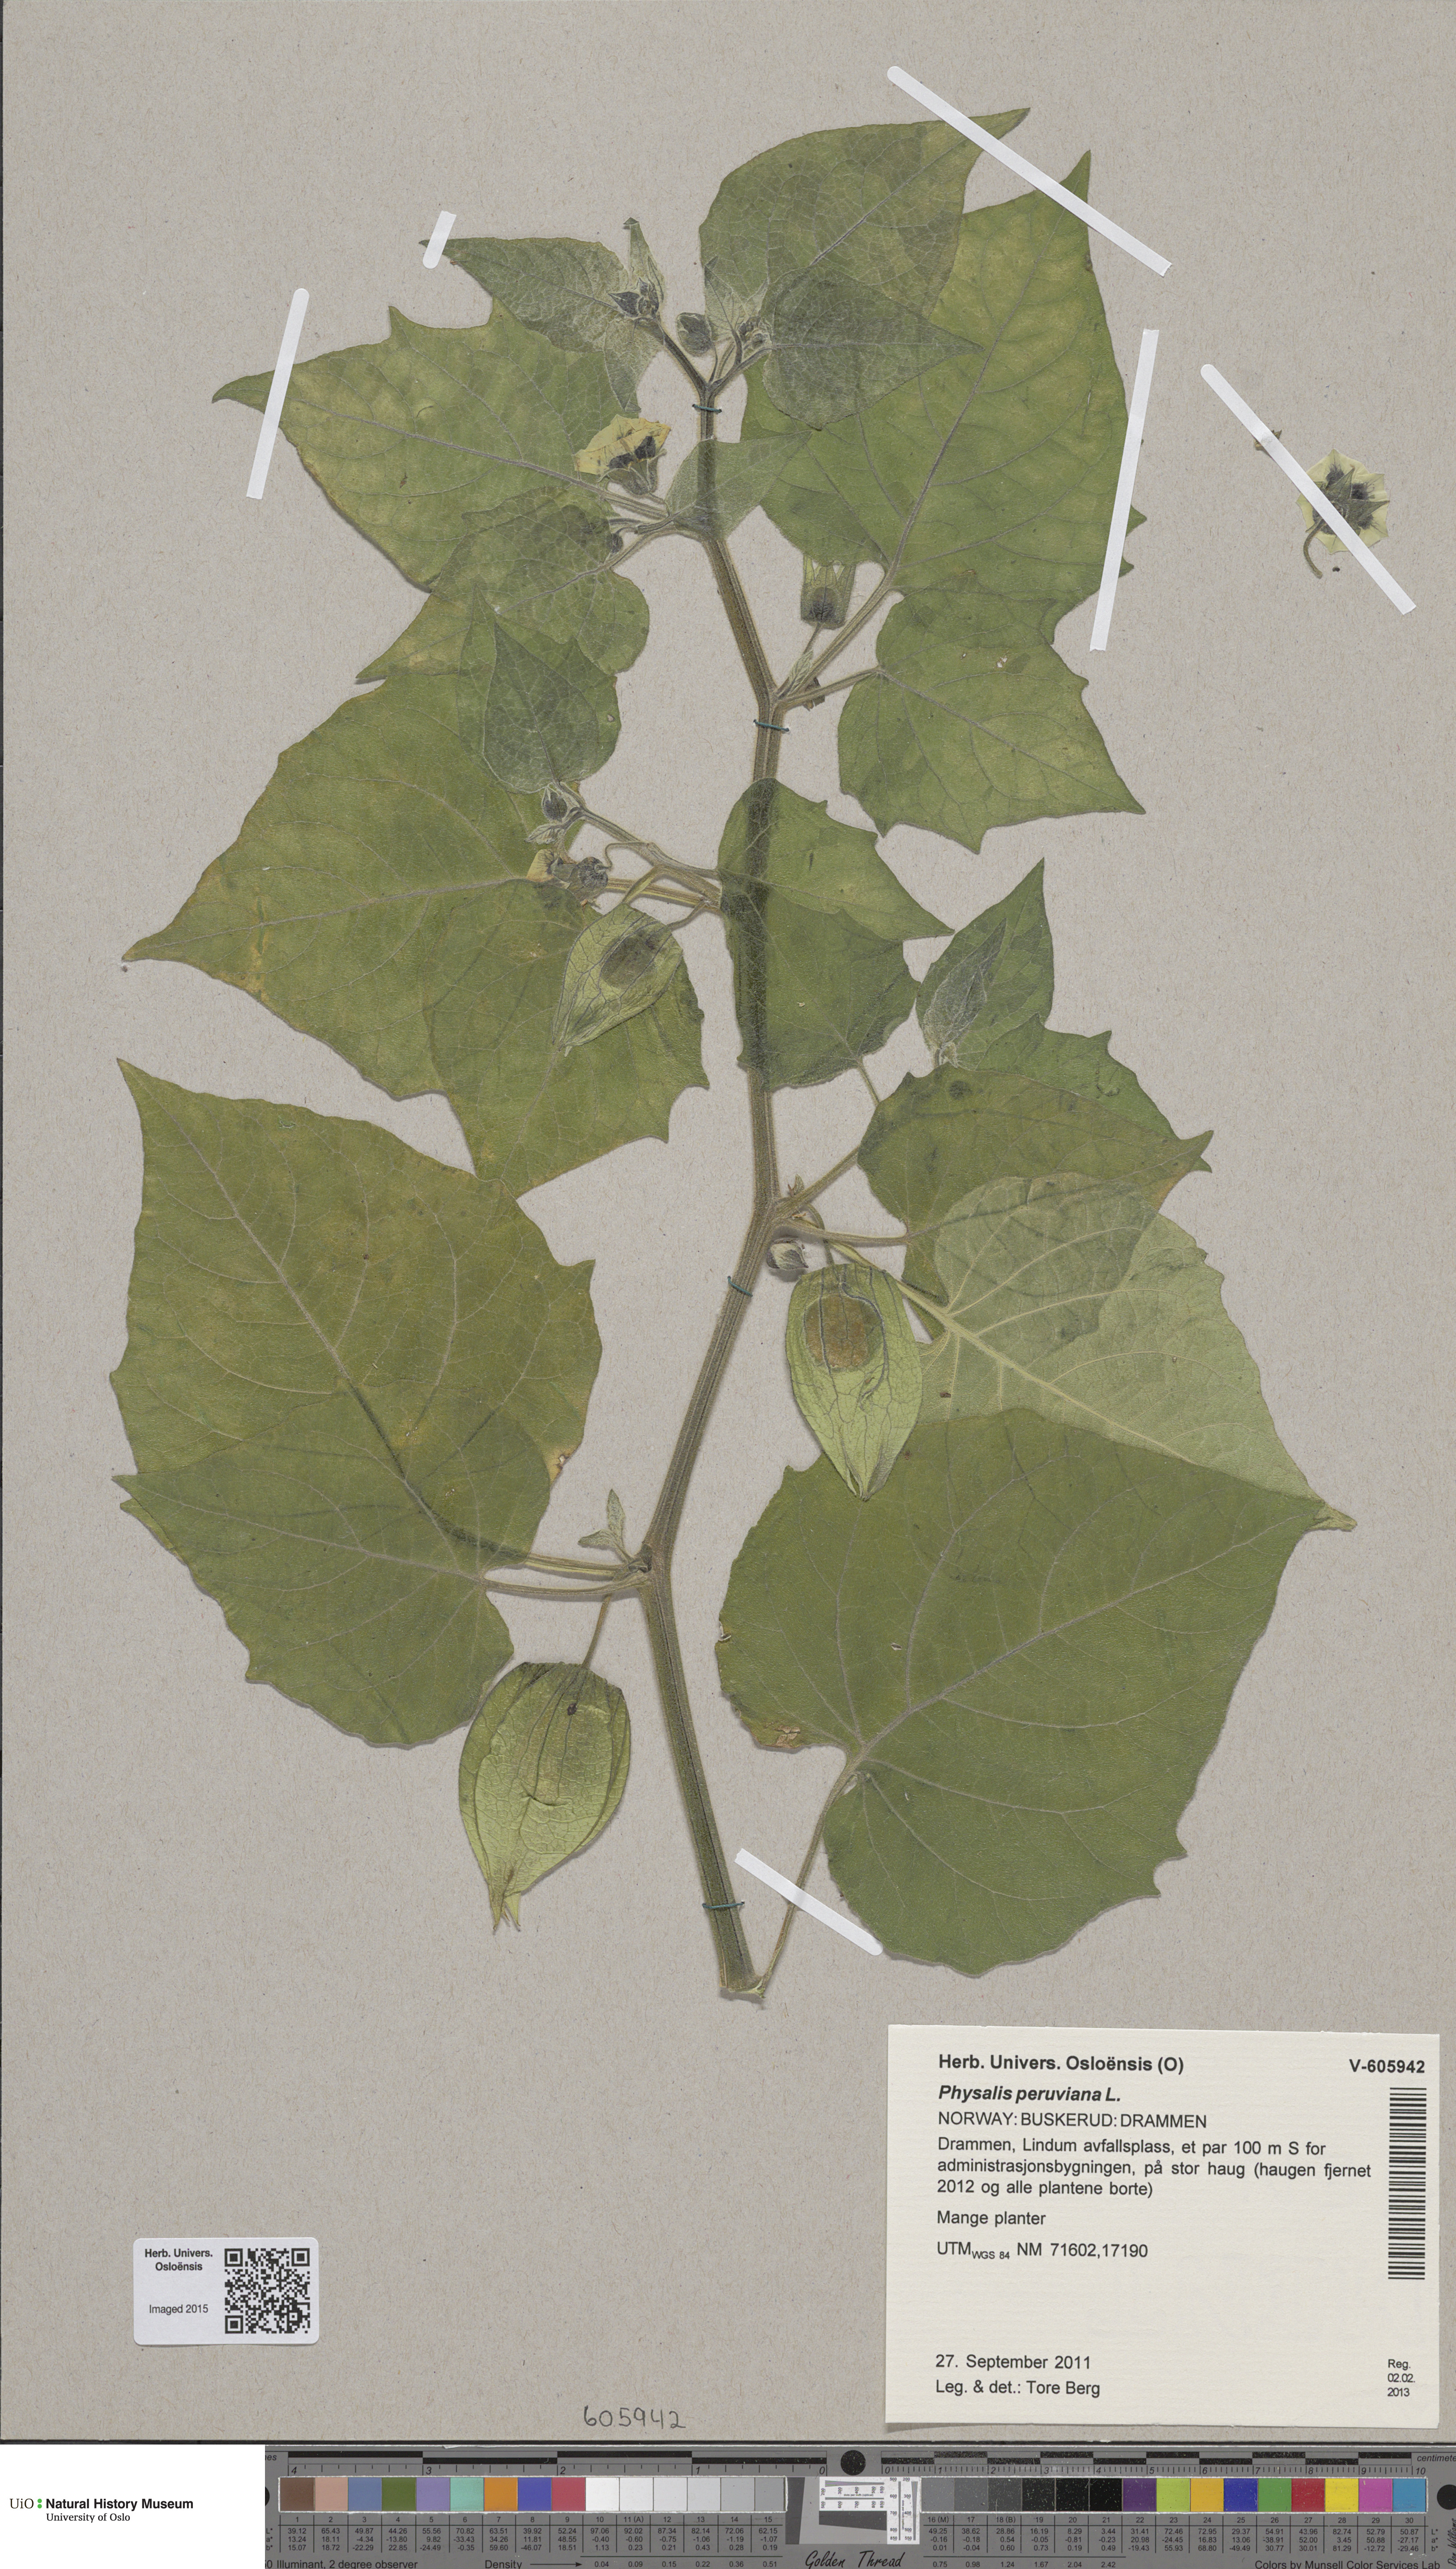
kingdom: Plantae
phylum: Tracheophyta
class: Magnoliopsida
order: Solanales
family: Solanaceae
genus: Physalis
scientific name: Physalis peruviana
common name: Cape-gooseberry
